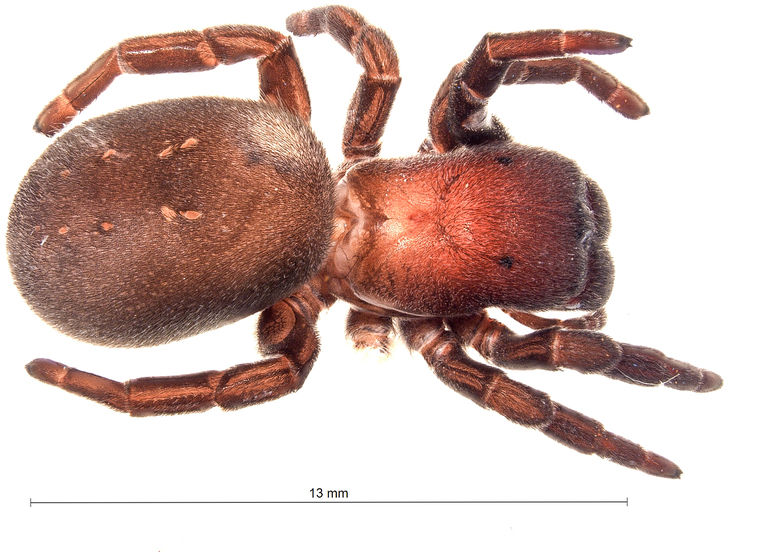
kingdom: Animalia
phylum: Arthropoda
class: Arachnida
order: Araneae
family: Eresidae
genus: Eresus
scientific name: Eresus kollari
